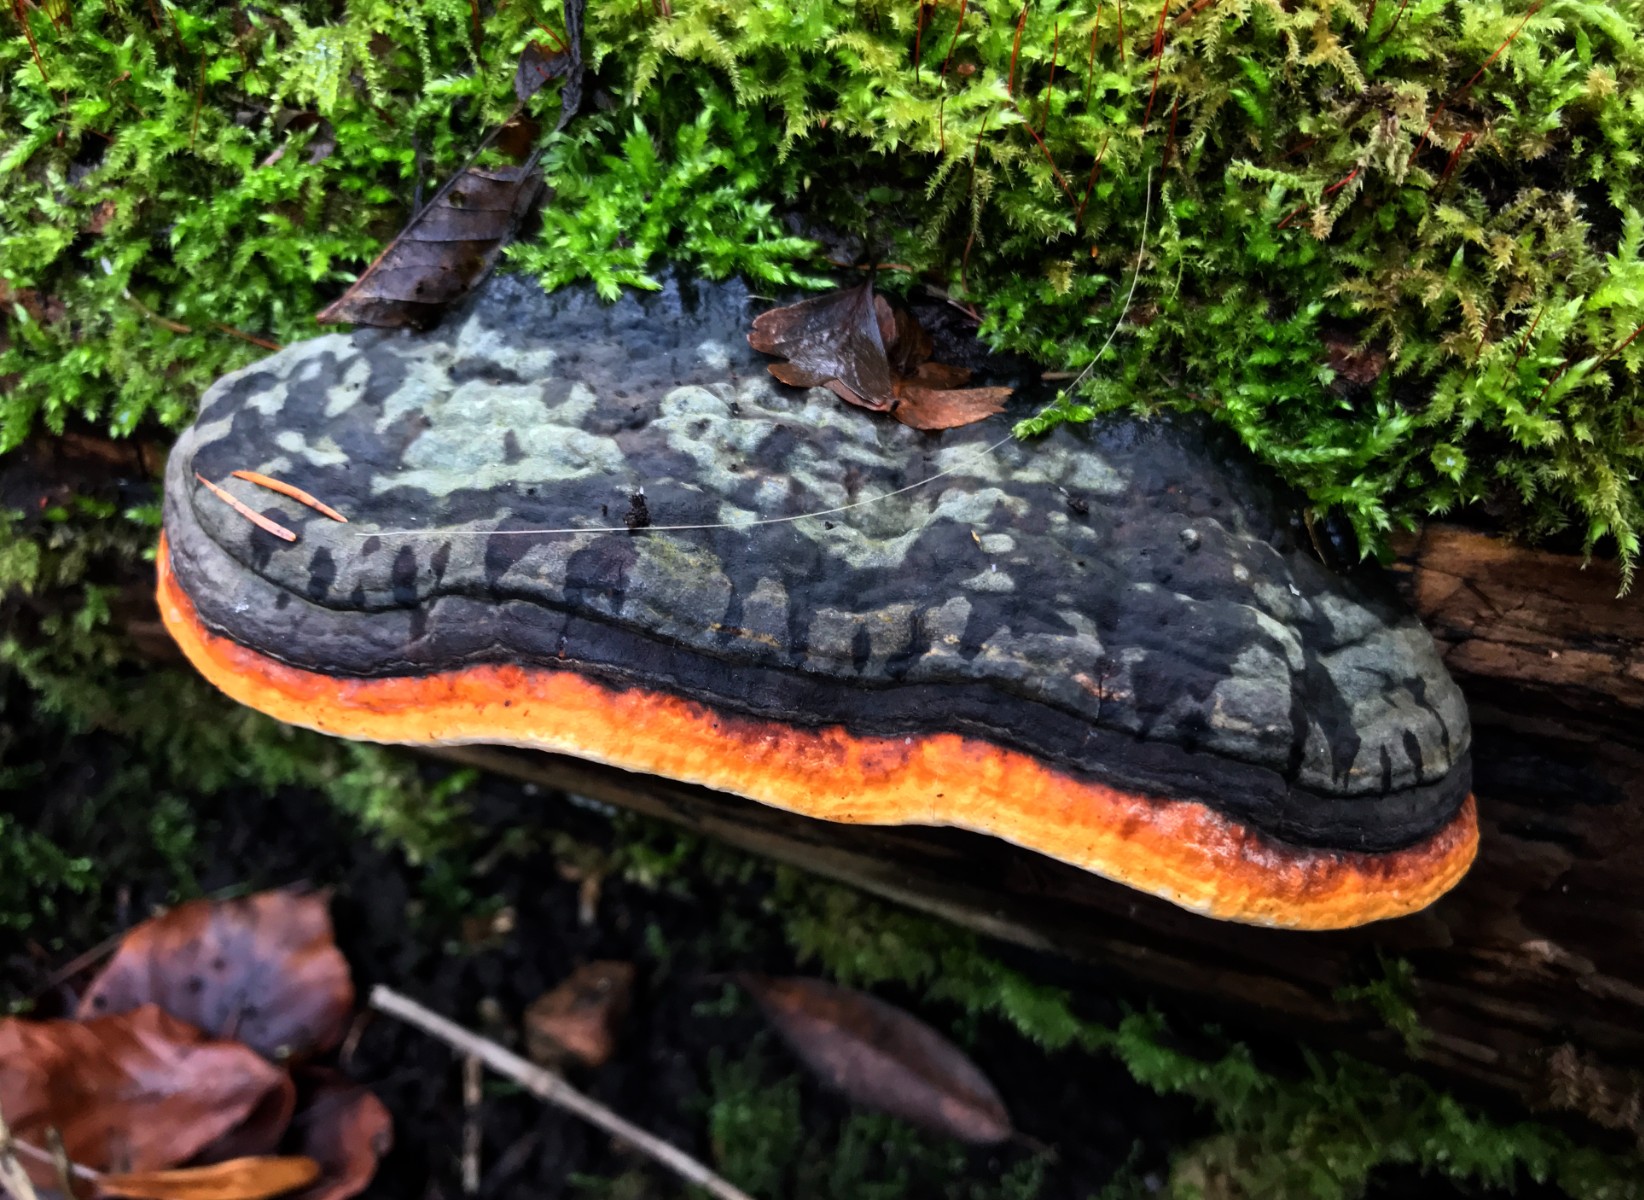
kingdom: Fungi
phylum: Basidiomycota
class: Agaricomycetes
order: Polyporales
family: Fomitopsidaceae
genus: Fomitopsis
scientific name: Fomitopsis pinicola
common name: randbæltet hovporesvamp
